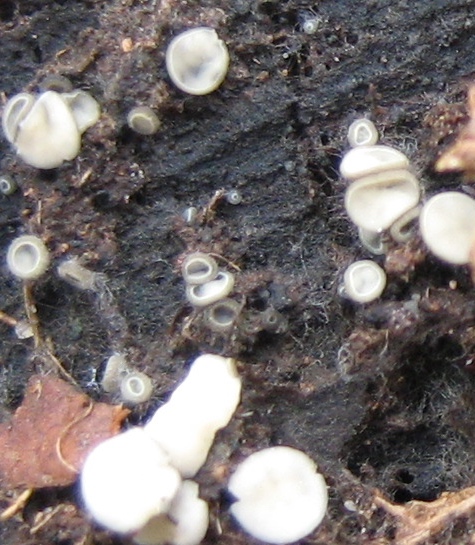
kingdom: Fungi
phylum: Ascomycota
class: Leotiomycetes
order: Helotiales
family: Mollisiaceae
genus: Mollisia
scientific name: Mollisia
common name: gråskive
